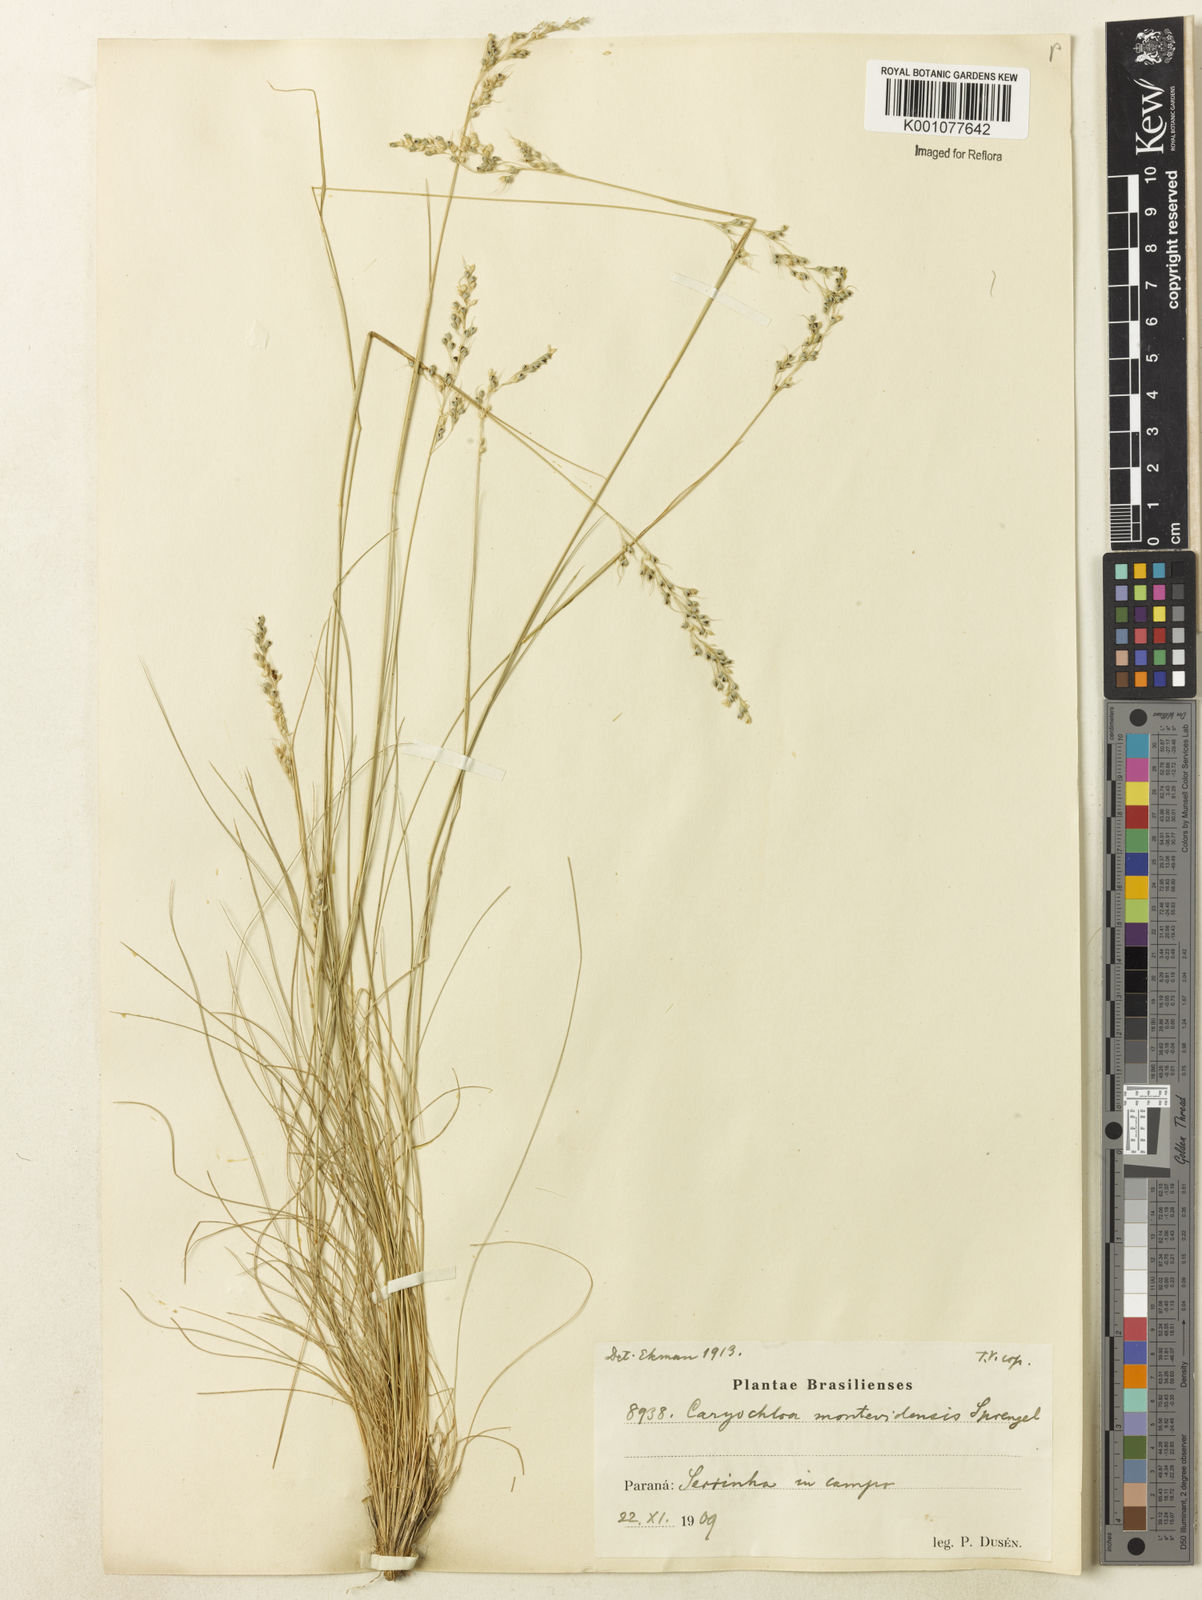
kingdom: Plantae
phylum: Tracheophyta
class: Liliopsida
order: Poales
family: Poaceae
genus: Piptochaetium
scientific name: Piptochaetium montevidense
